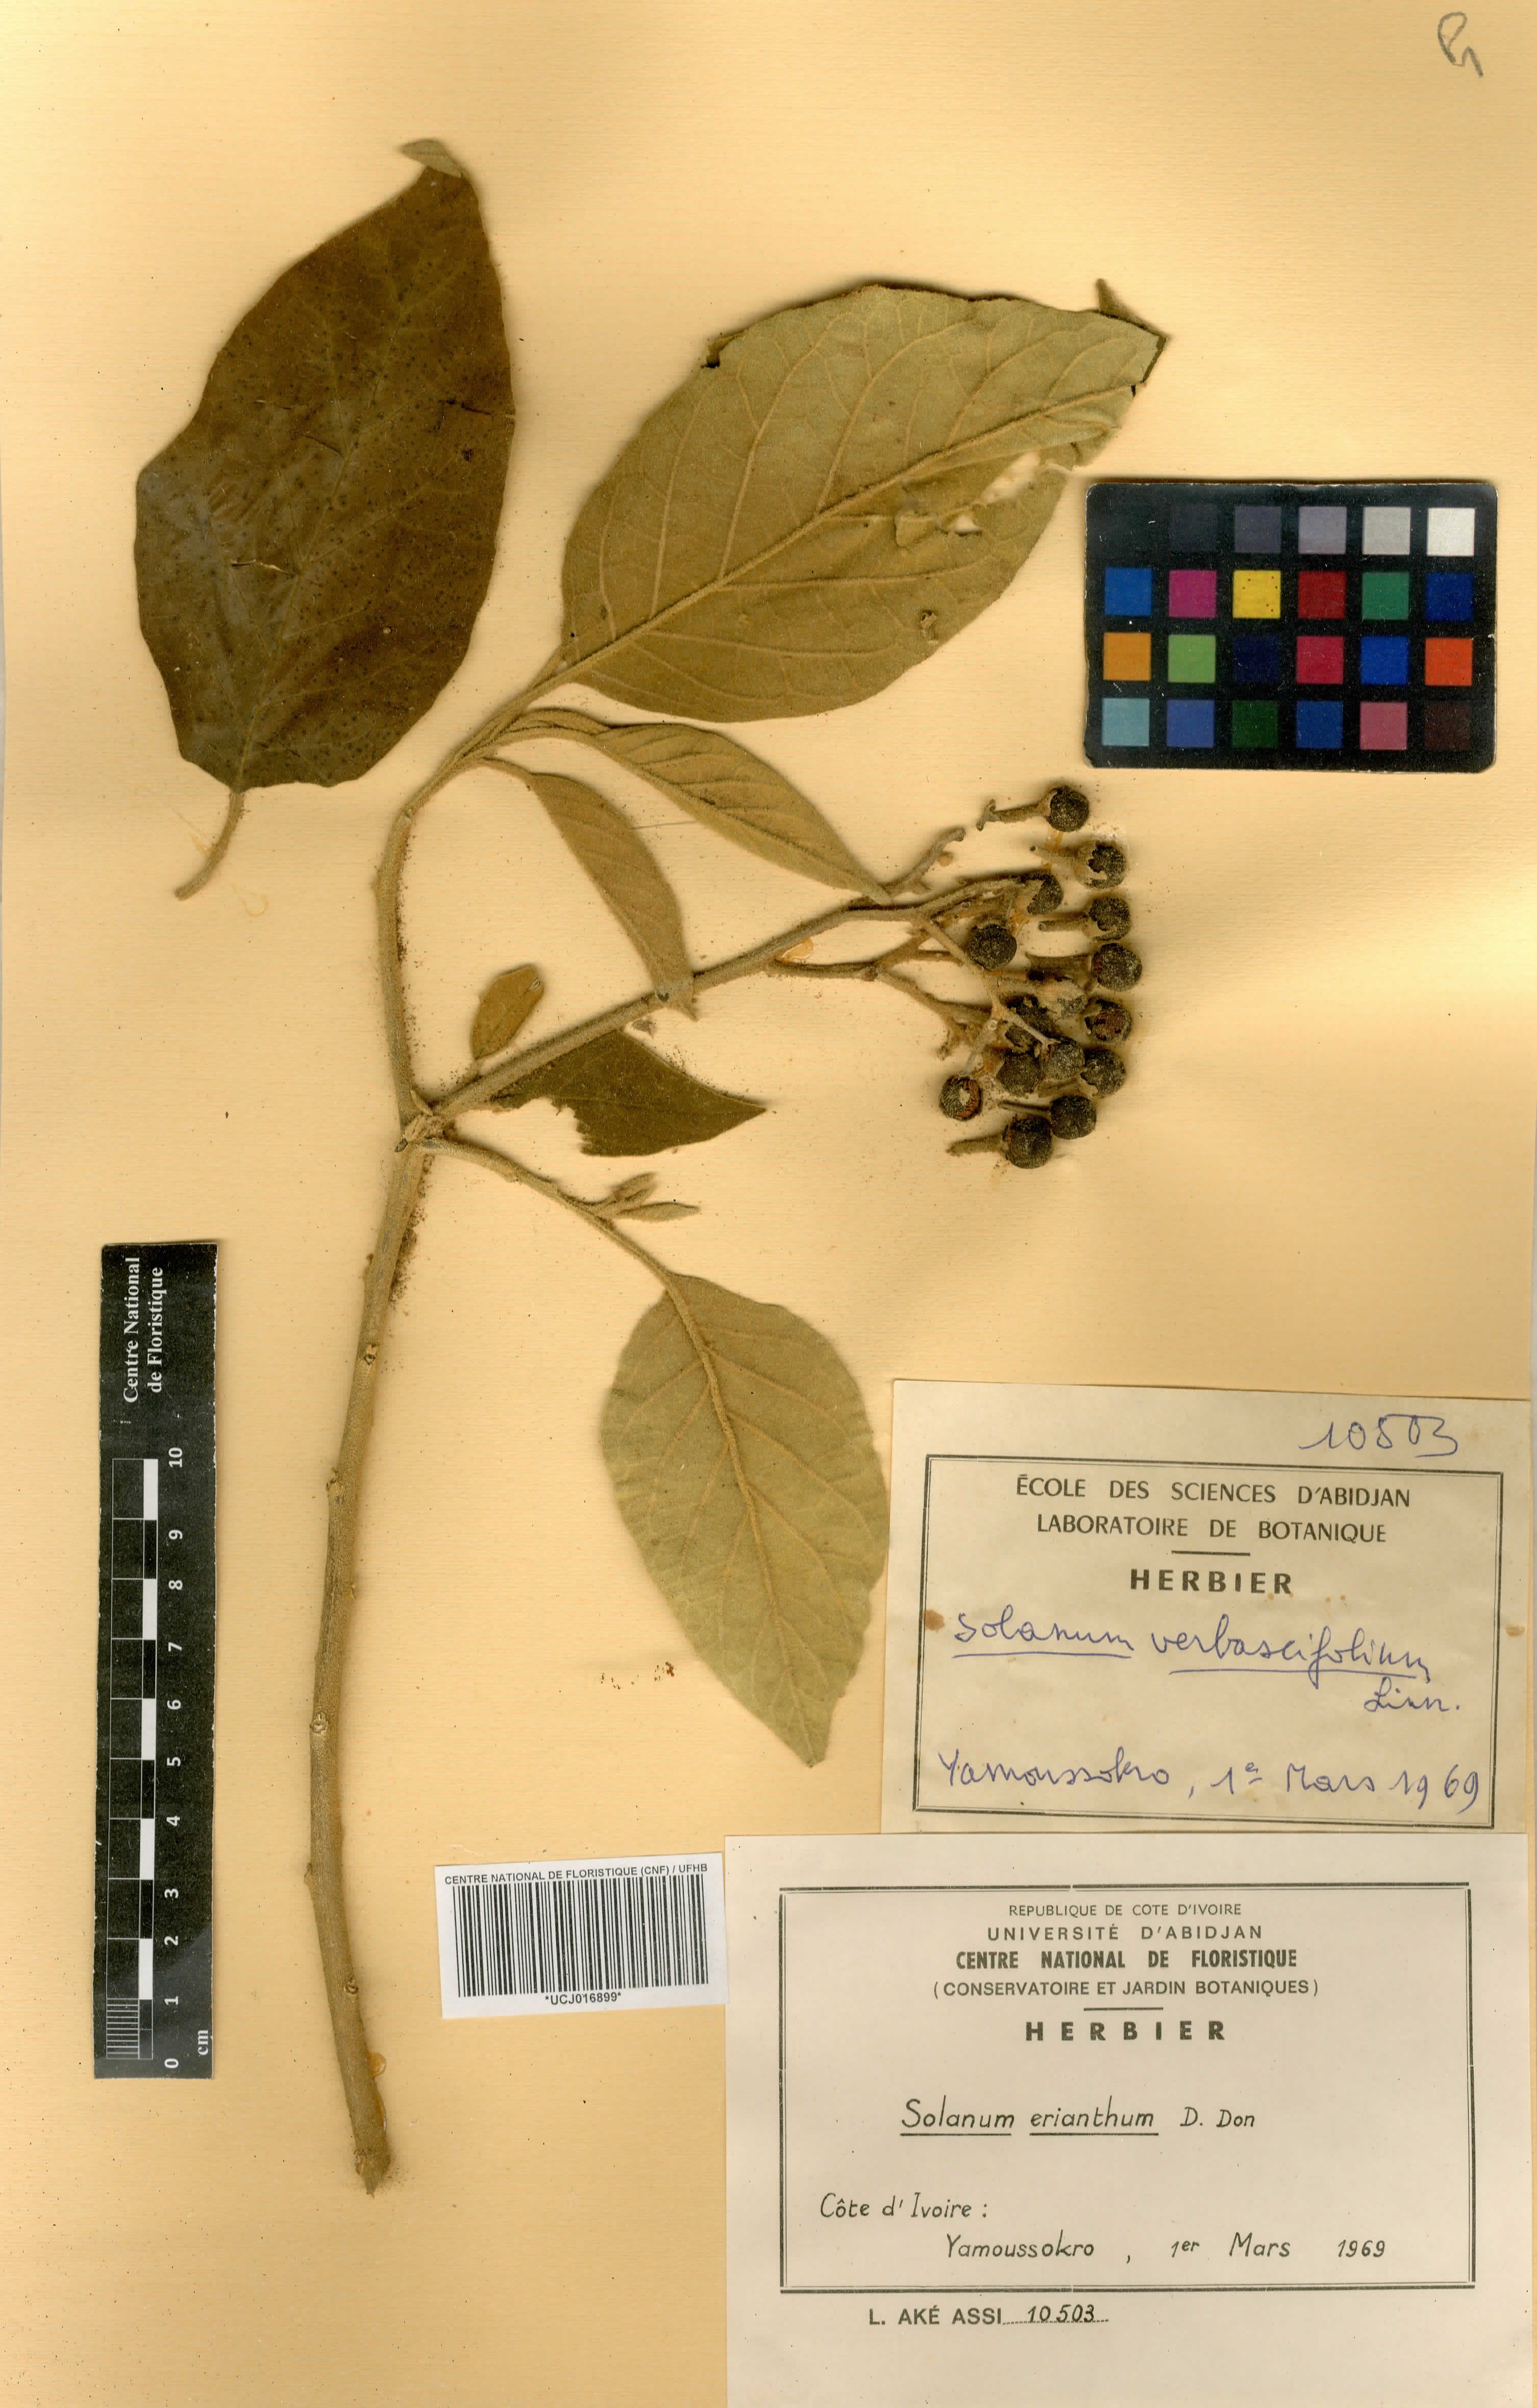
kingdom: Plantae
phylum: Tracheophyta
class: Magnoliopsida
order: Solanales
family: Solanaceae
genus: Solanum
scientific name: Solanum erianthum
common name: Tobacco-tree
